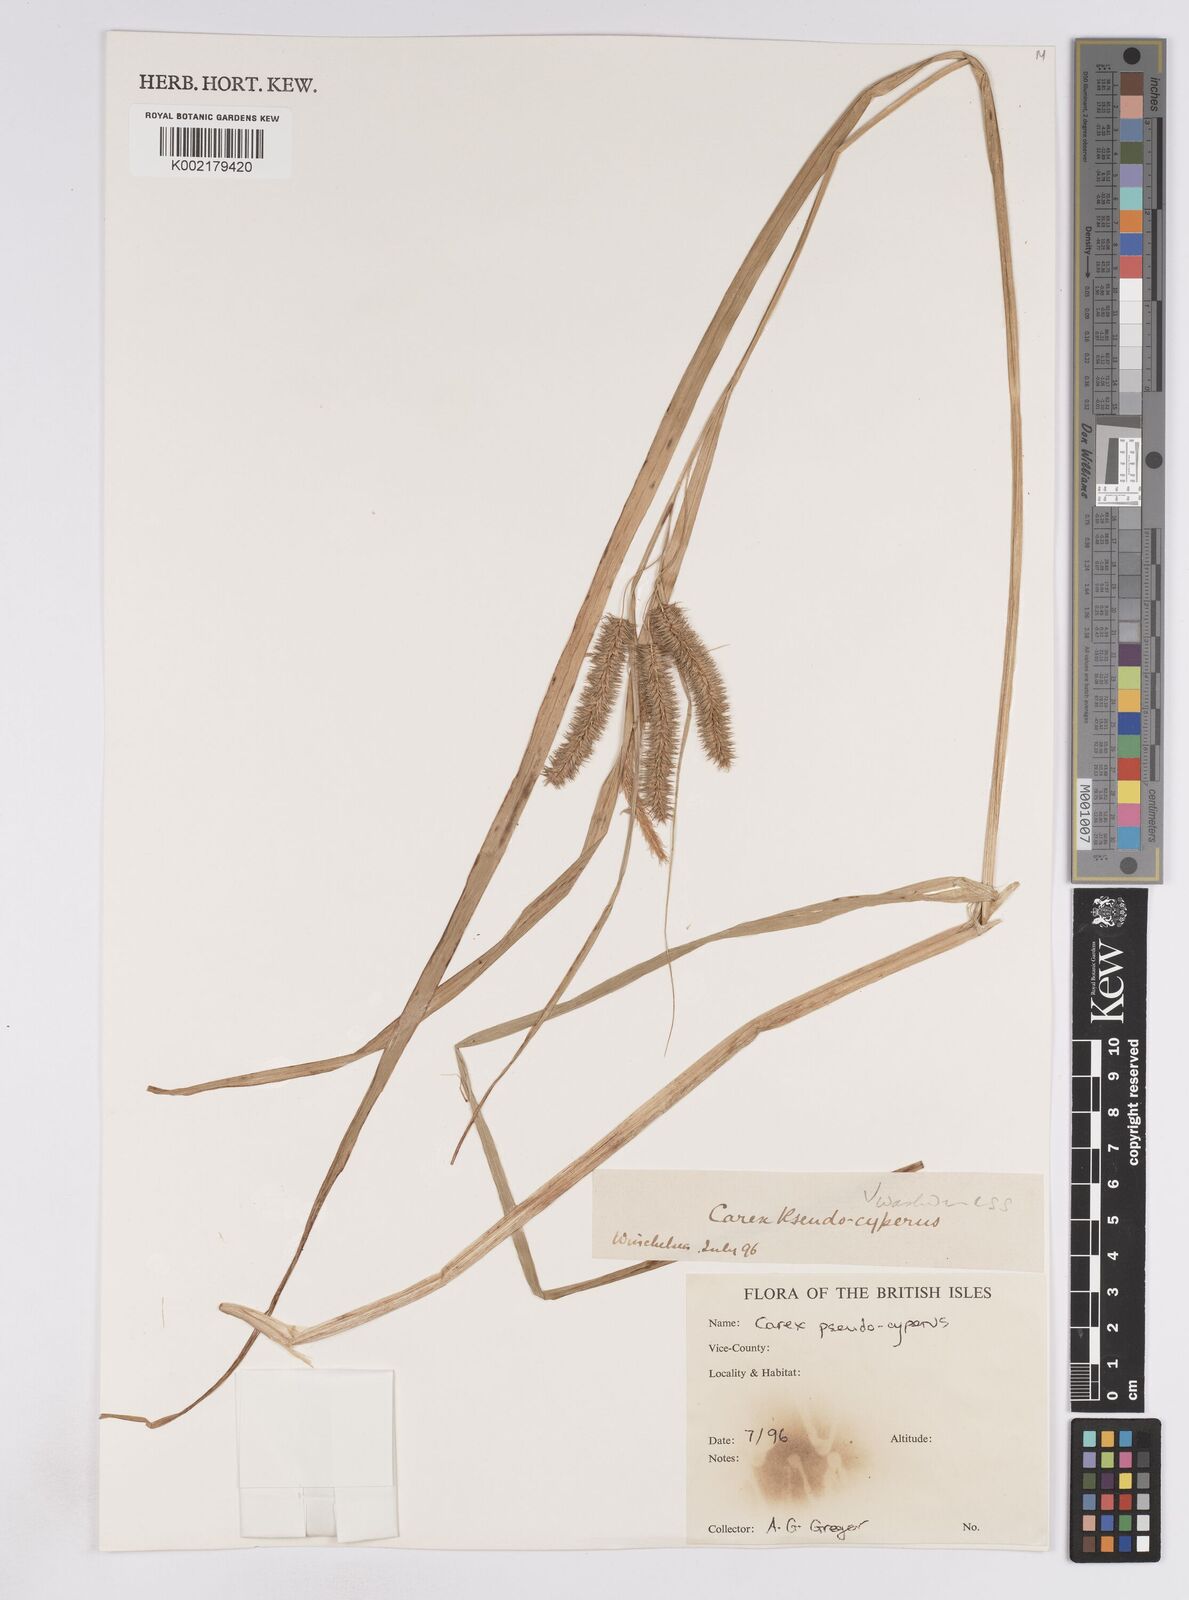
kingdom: Plantae
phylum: Tracheophyta
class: Liliopsida
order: Poales
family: Cyperaceae
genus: Carex
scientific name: Carex pseudocyperus
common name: Cyperus sedge
